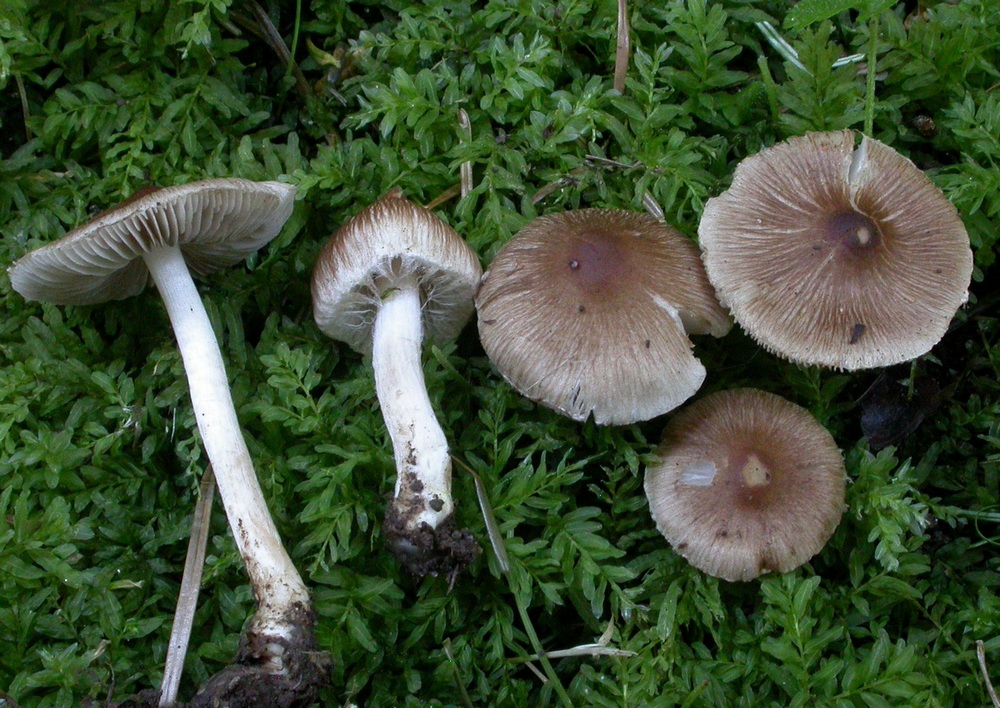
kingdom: Fungi
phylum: Basidiomycota
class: Agaricomycetes
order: Agaricales
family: Inocybaceae
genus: Inocybe
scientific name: Inocybe
